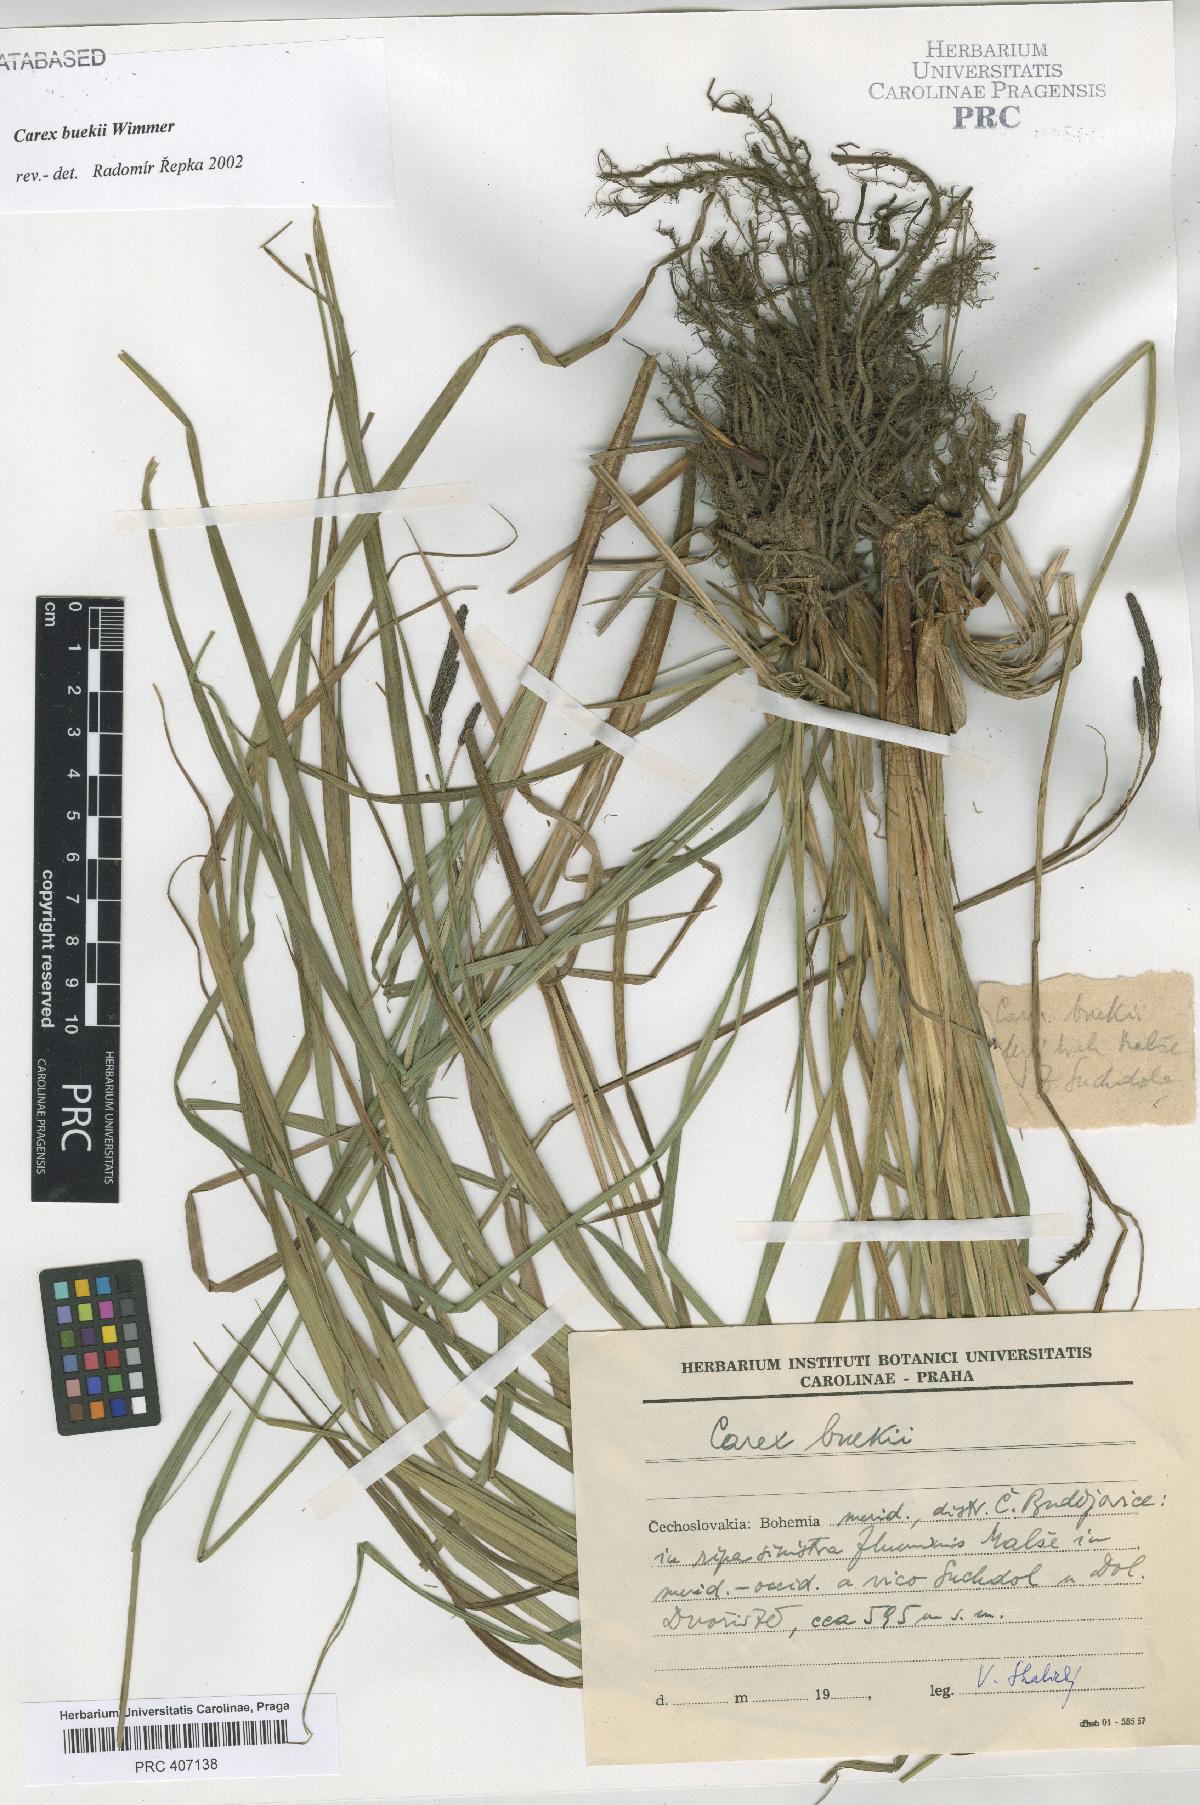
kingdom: Plantae
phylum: Tracheophyta
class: Liliopsida
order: Poales
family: Cyperaceae
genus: Carex
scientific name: Carex buekii
